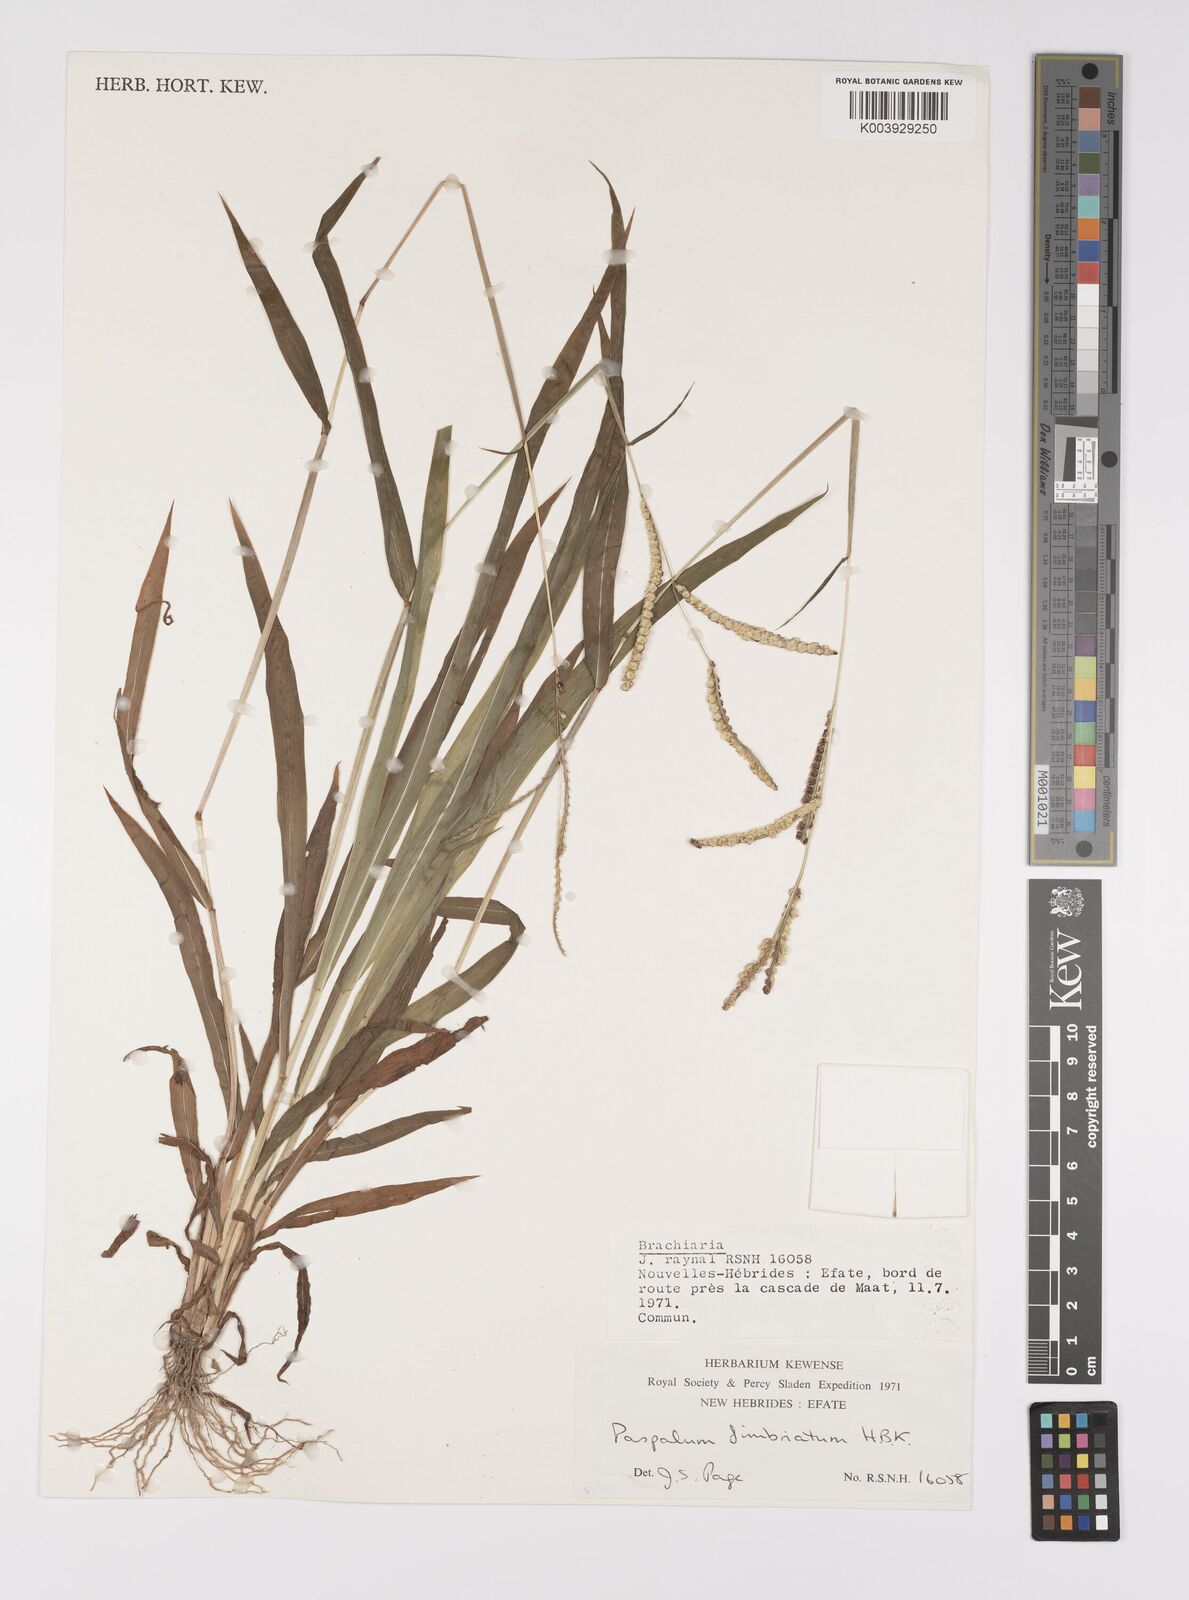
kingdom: Plantae
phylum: Tracheophyta
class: Liliopsida
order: Poales
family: Poaceae
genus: Paspalum
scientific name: Paspalum fimbriatum
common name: Panama crowngrass
